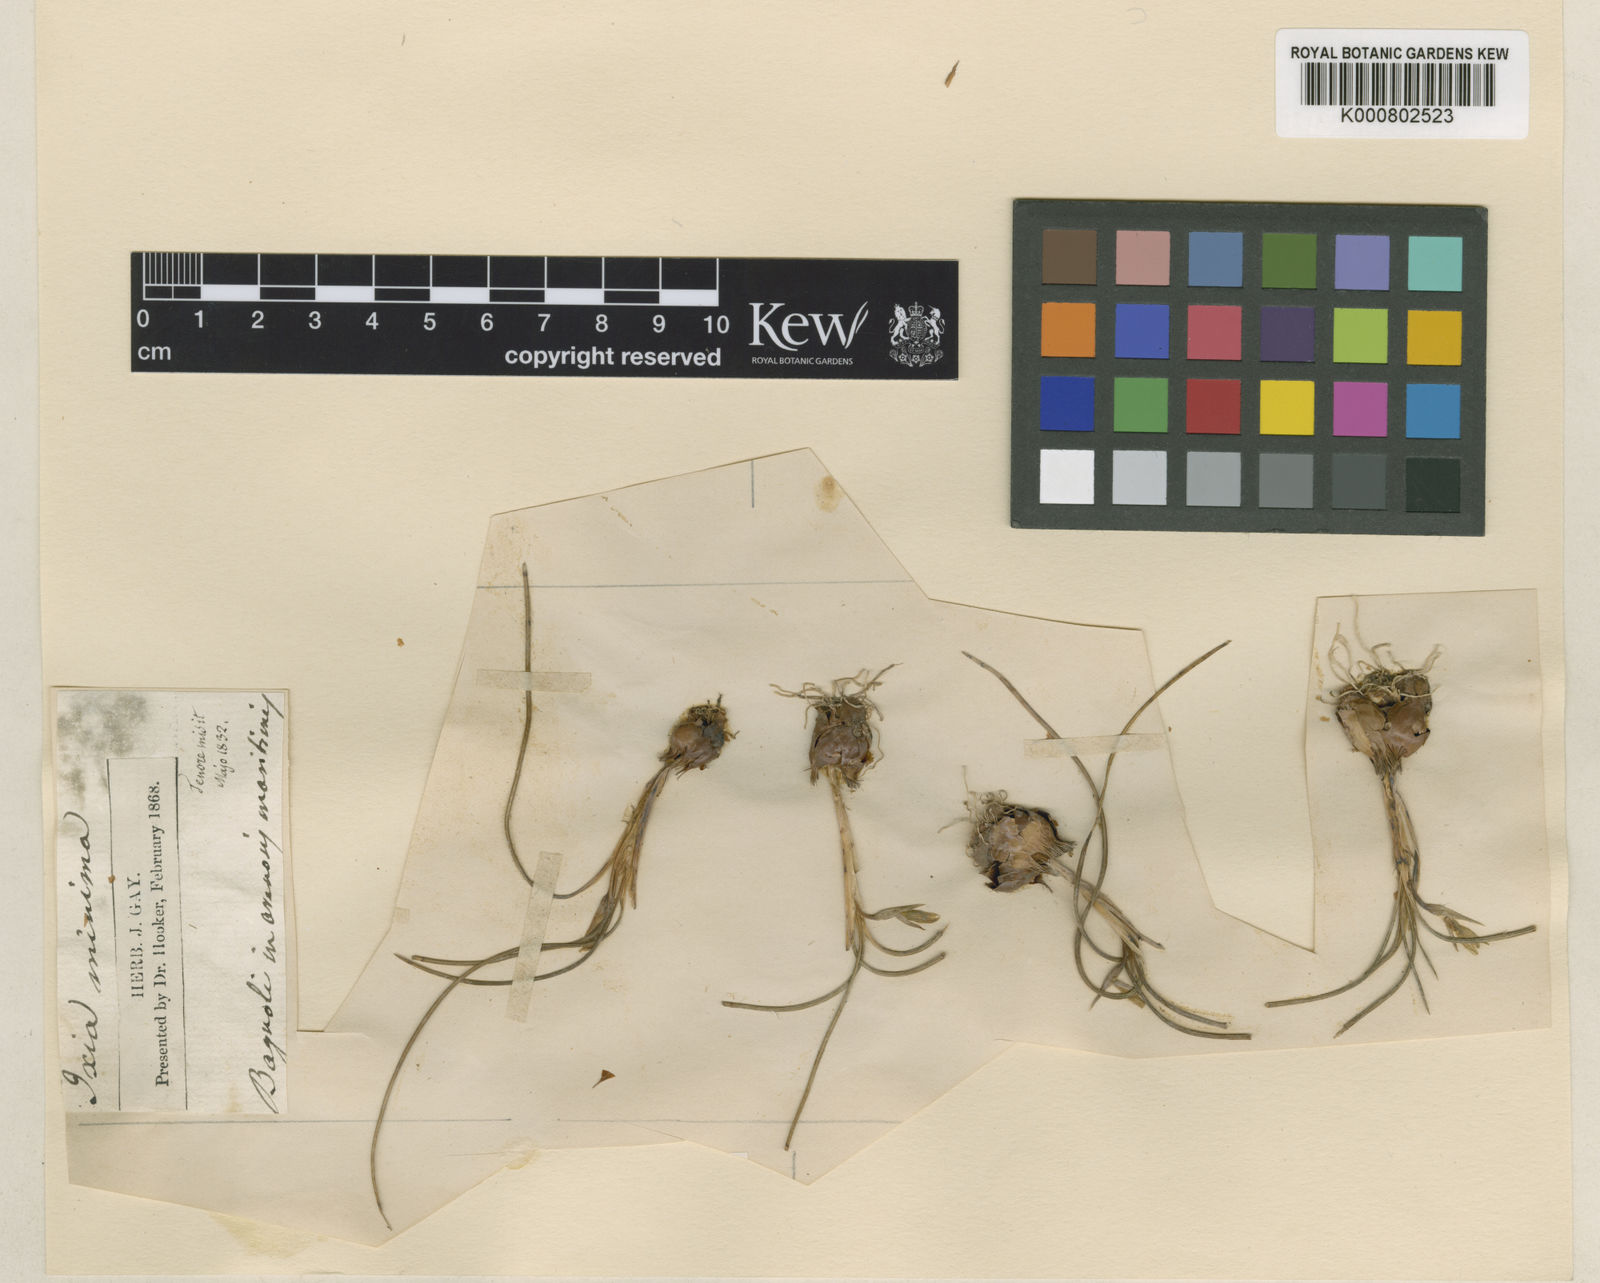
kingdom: Plantae
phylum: Tracheophyta
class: Liliopsida
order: Asparagales
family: Iridaceae
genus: Romulea
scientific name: Romulea columnae
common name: Sand-crocus
